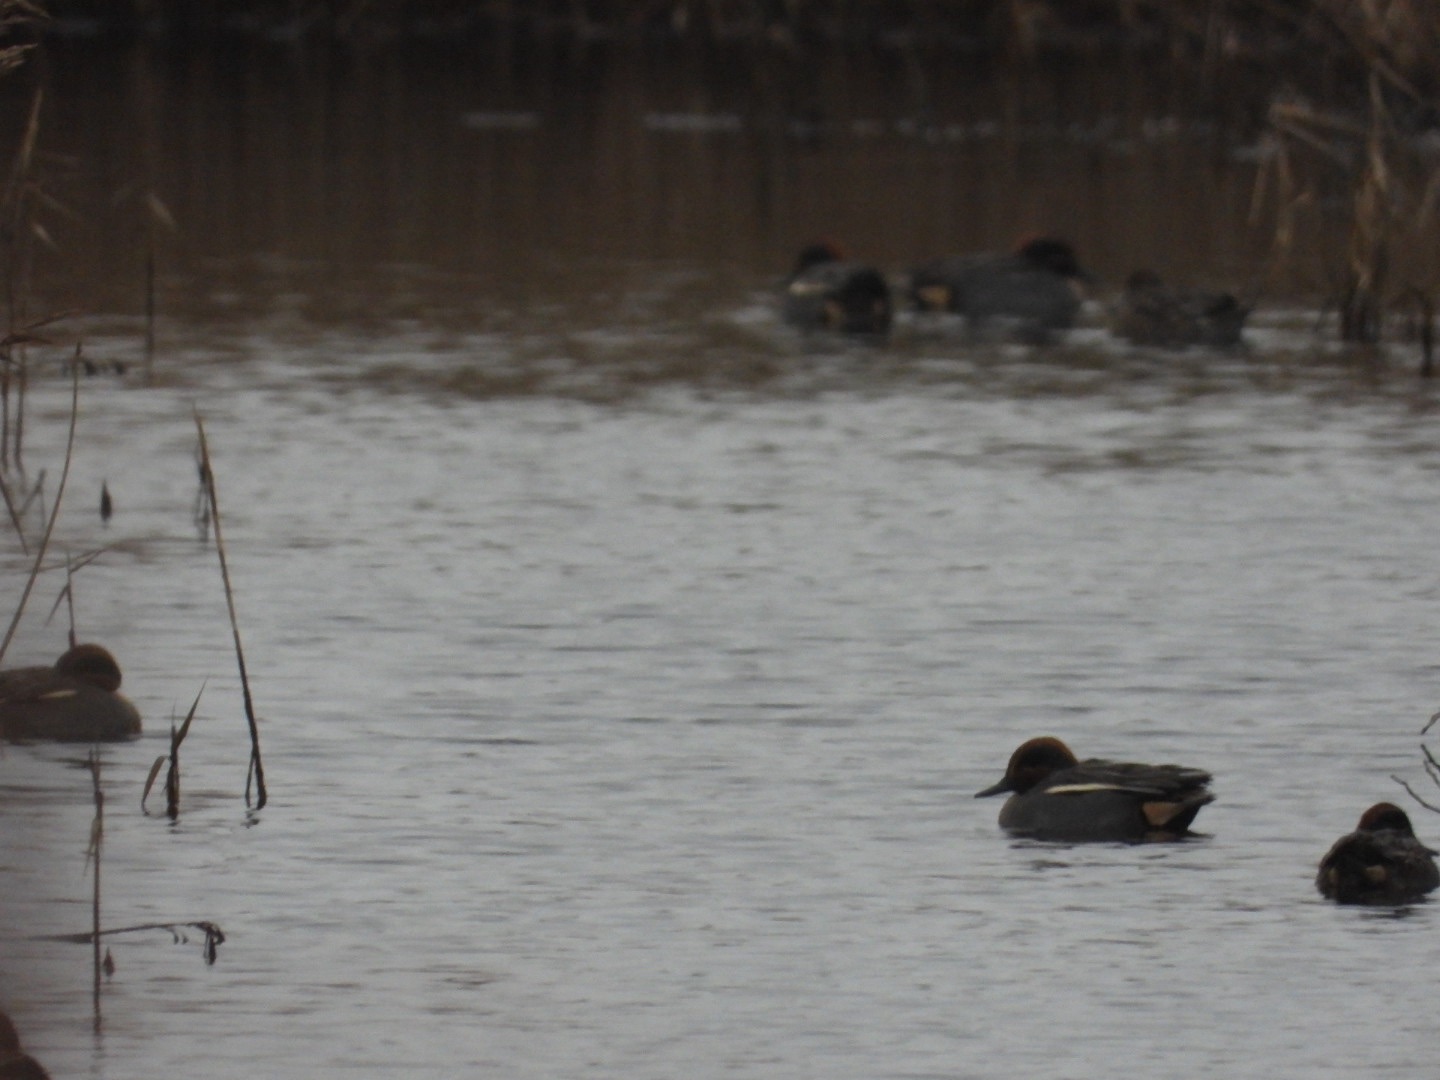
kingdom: Animalia
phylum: Chordata
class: Aves
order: Anseriformes
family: Anatidae
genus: Anas
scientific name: Anas crecca
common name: Krikand
